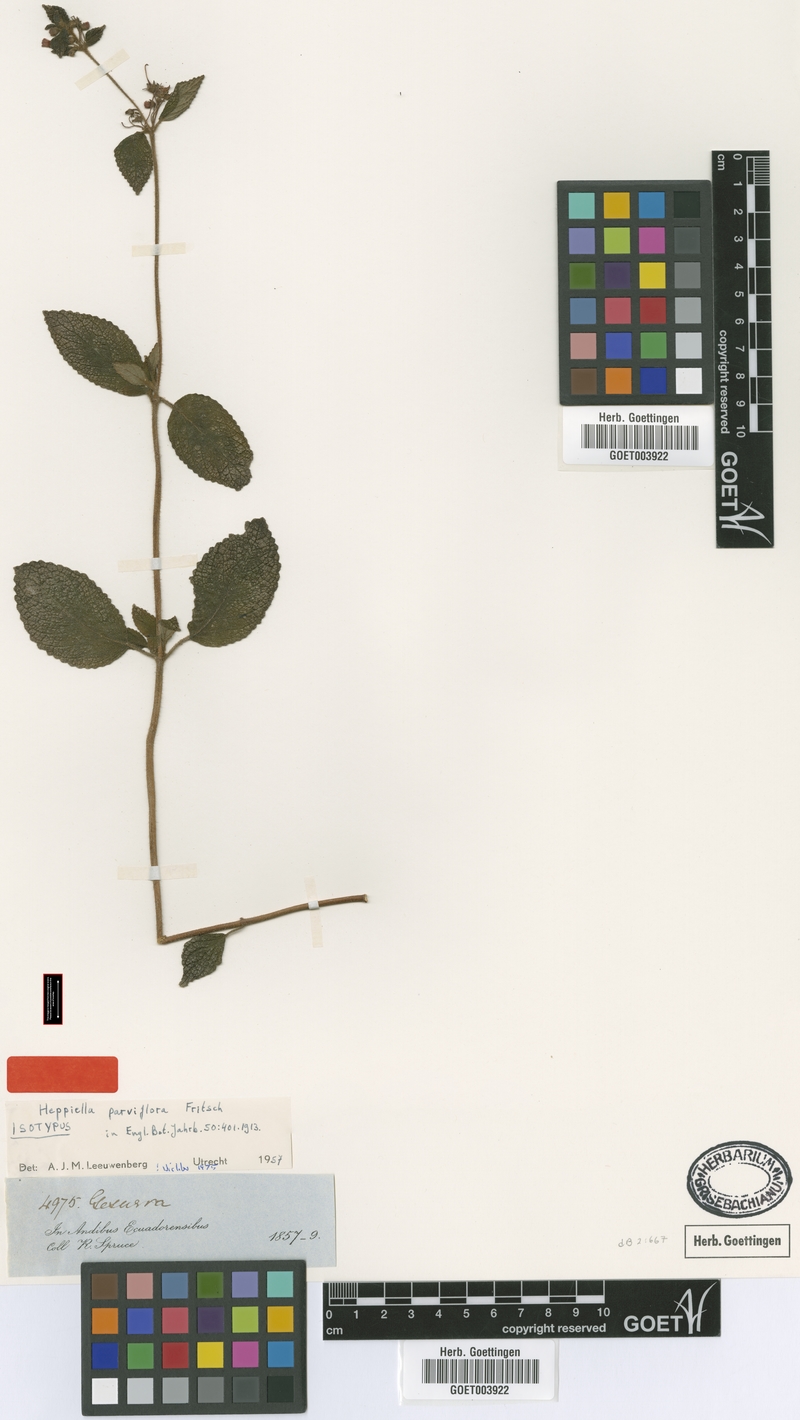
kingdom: Plantae
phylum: Tracheophyta
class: Magnoliopsida
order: Lamiales
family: Gesneriaceae
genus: Heppiella
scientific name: Heppiella verticillata
